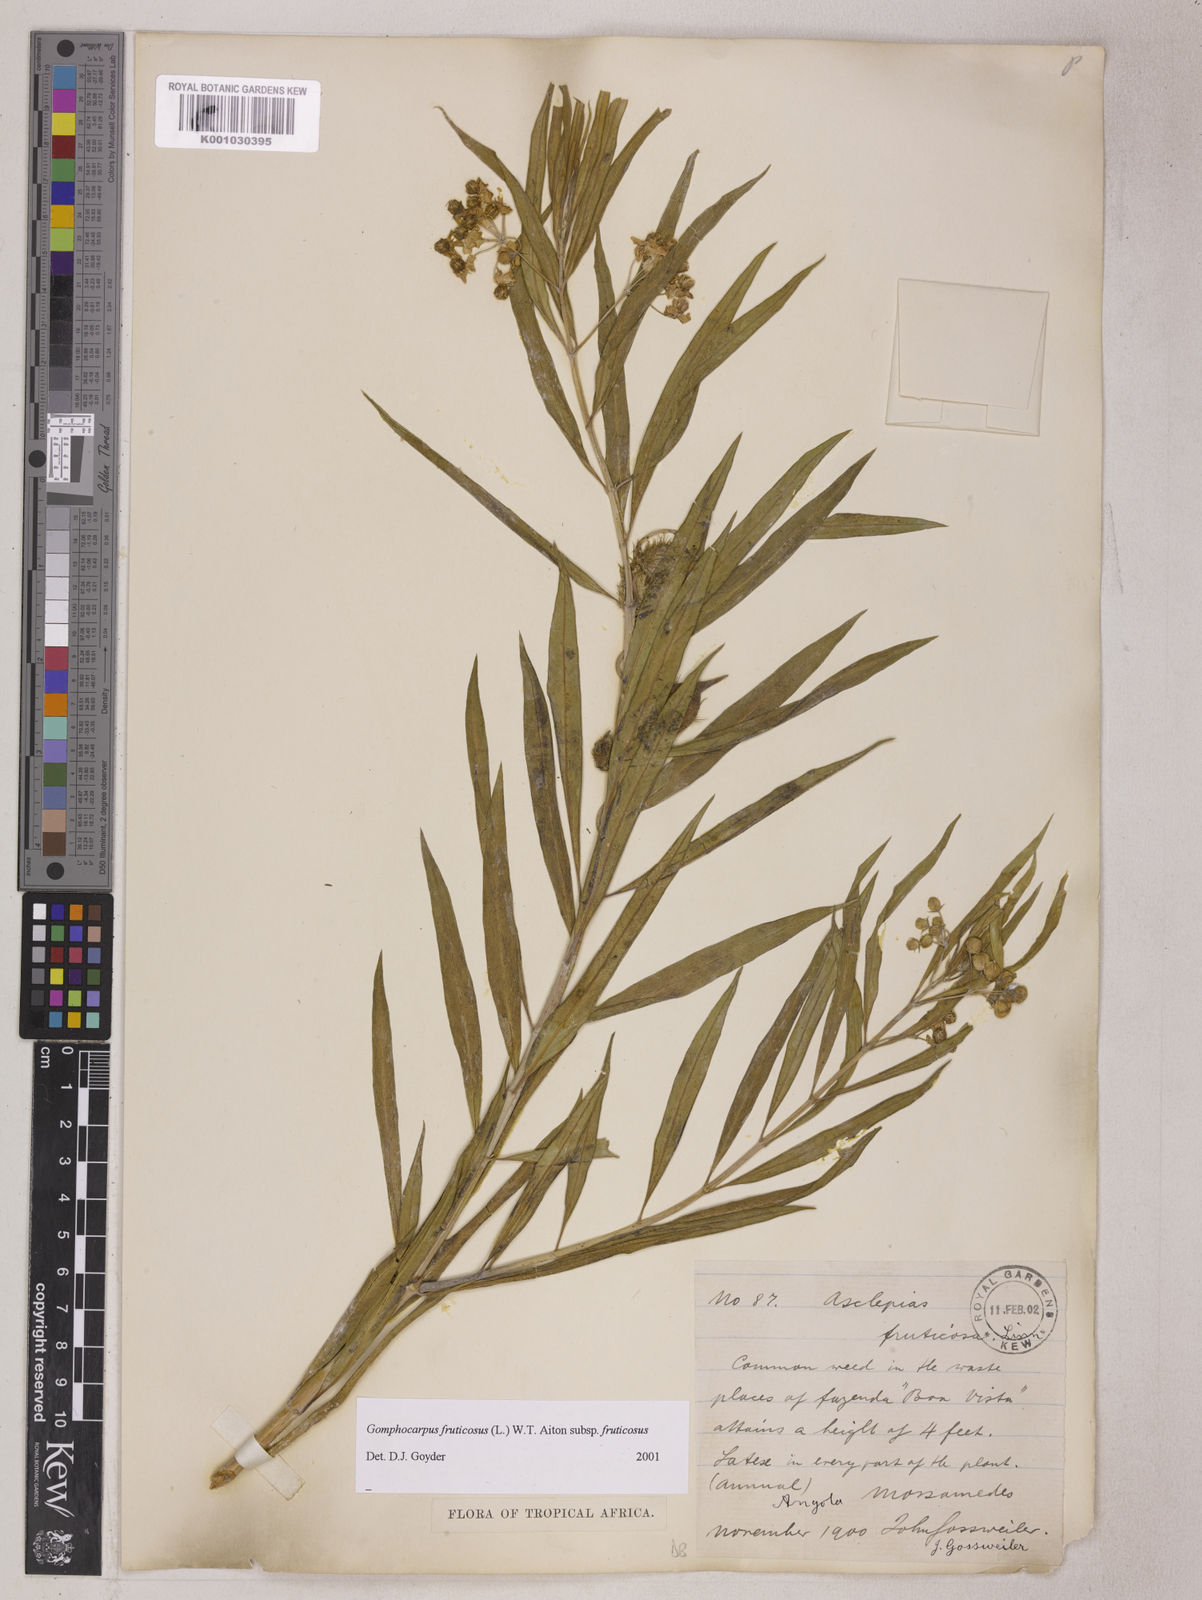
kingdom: Plantae
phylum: Tracheophyta
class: Magnoliopsida
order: Gentianales
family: Apocynaceae
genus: Gomphocarpus
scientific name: Gomphocarpus fruticosus
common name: Milkweed
